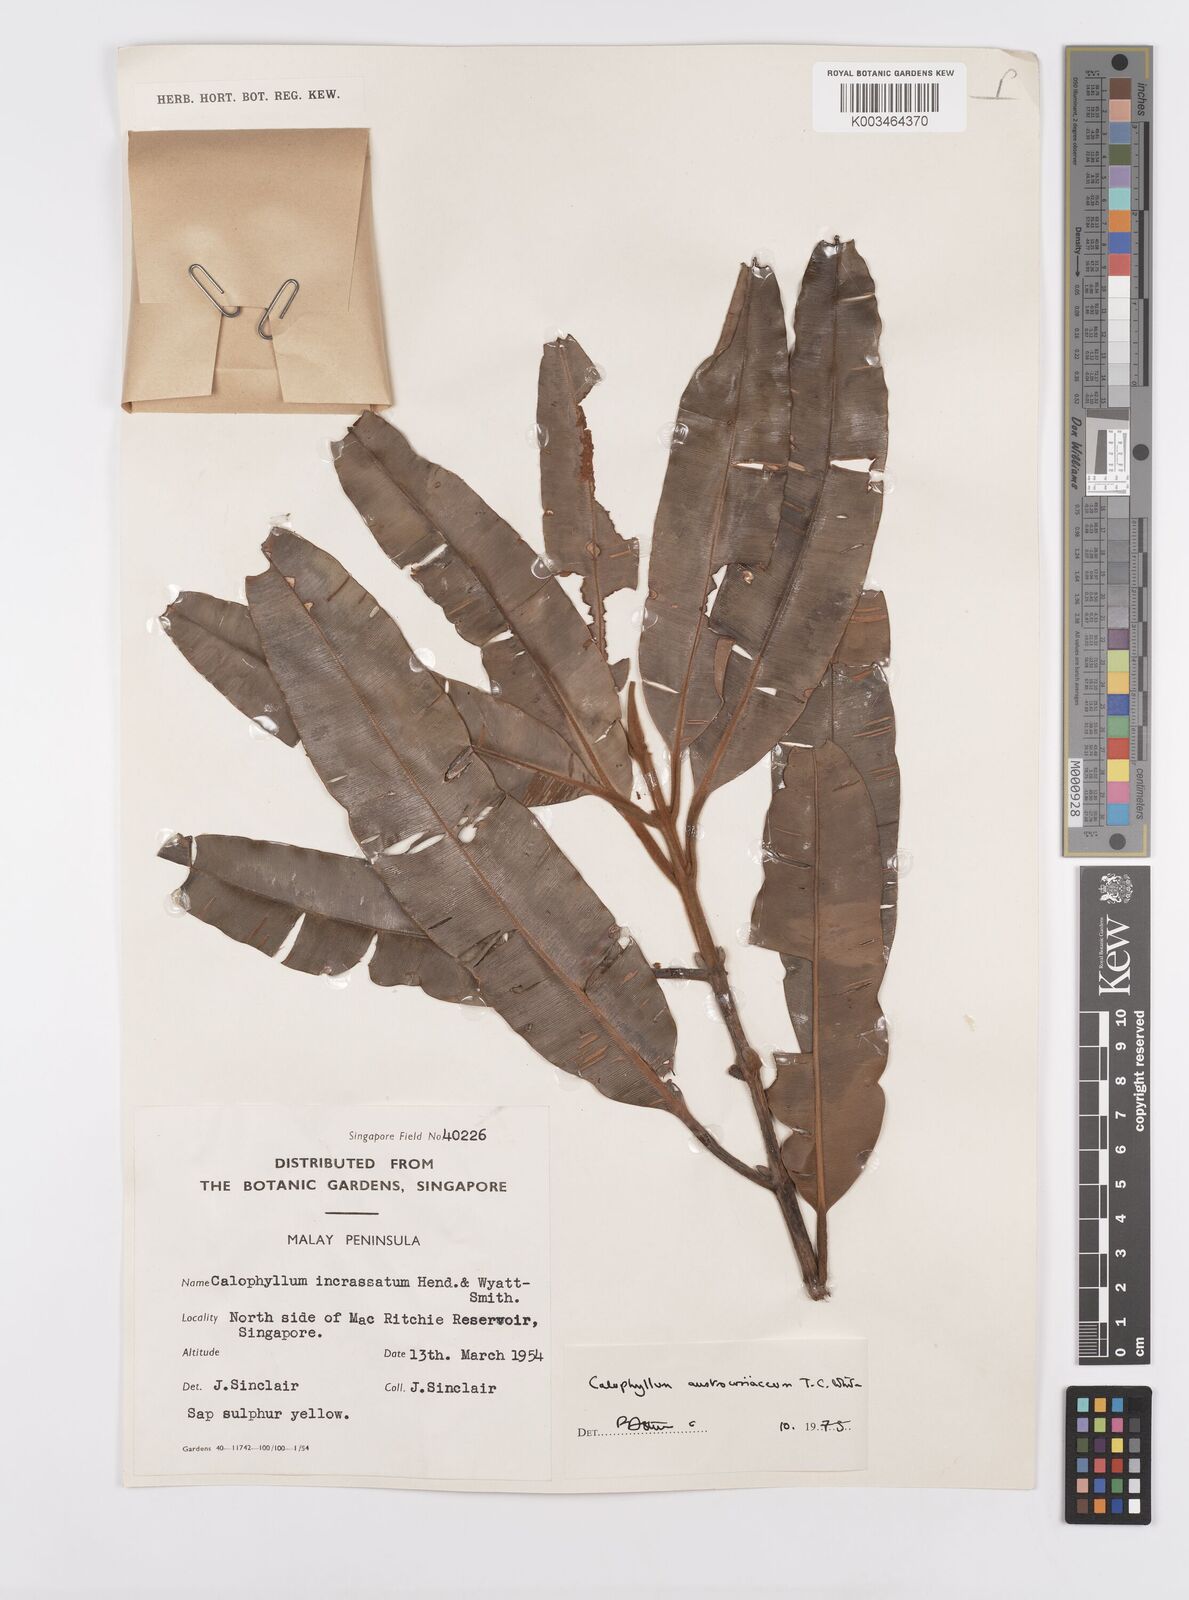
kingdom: Plantae
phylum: Tracheophyta
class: Magnoliopsida
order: Malpighiales
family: Calophyllaceae
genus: Calophyllum
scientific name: Calophyllum lanigerum
